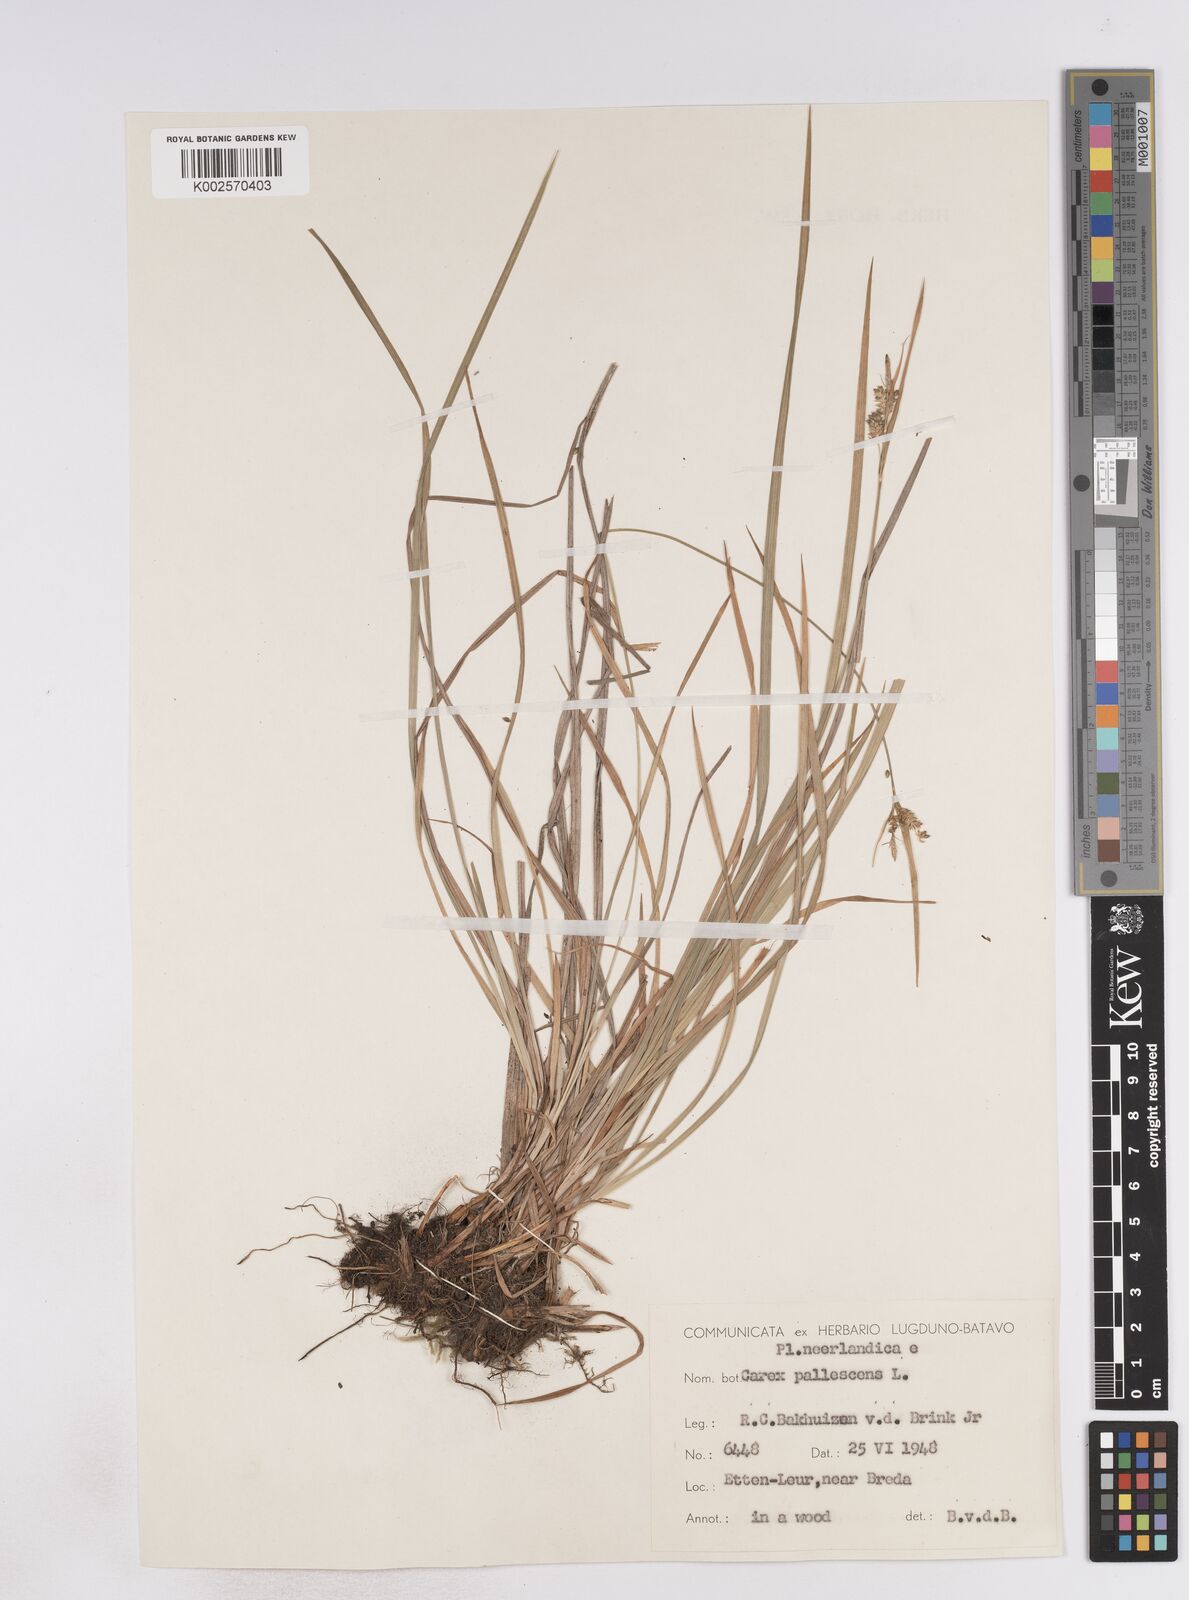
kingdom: Plantae
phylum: Tracheophyta
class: Liliopsida
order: Poales
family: Cyperaceae
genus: Carex
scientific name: Carex pallescens
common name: Pale sedge
